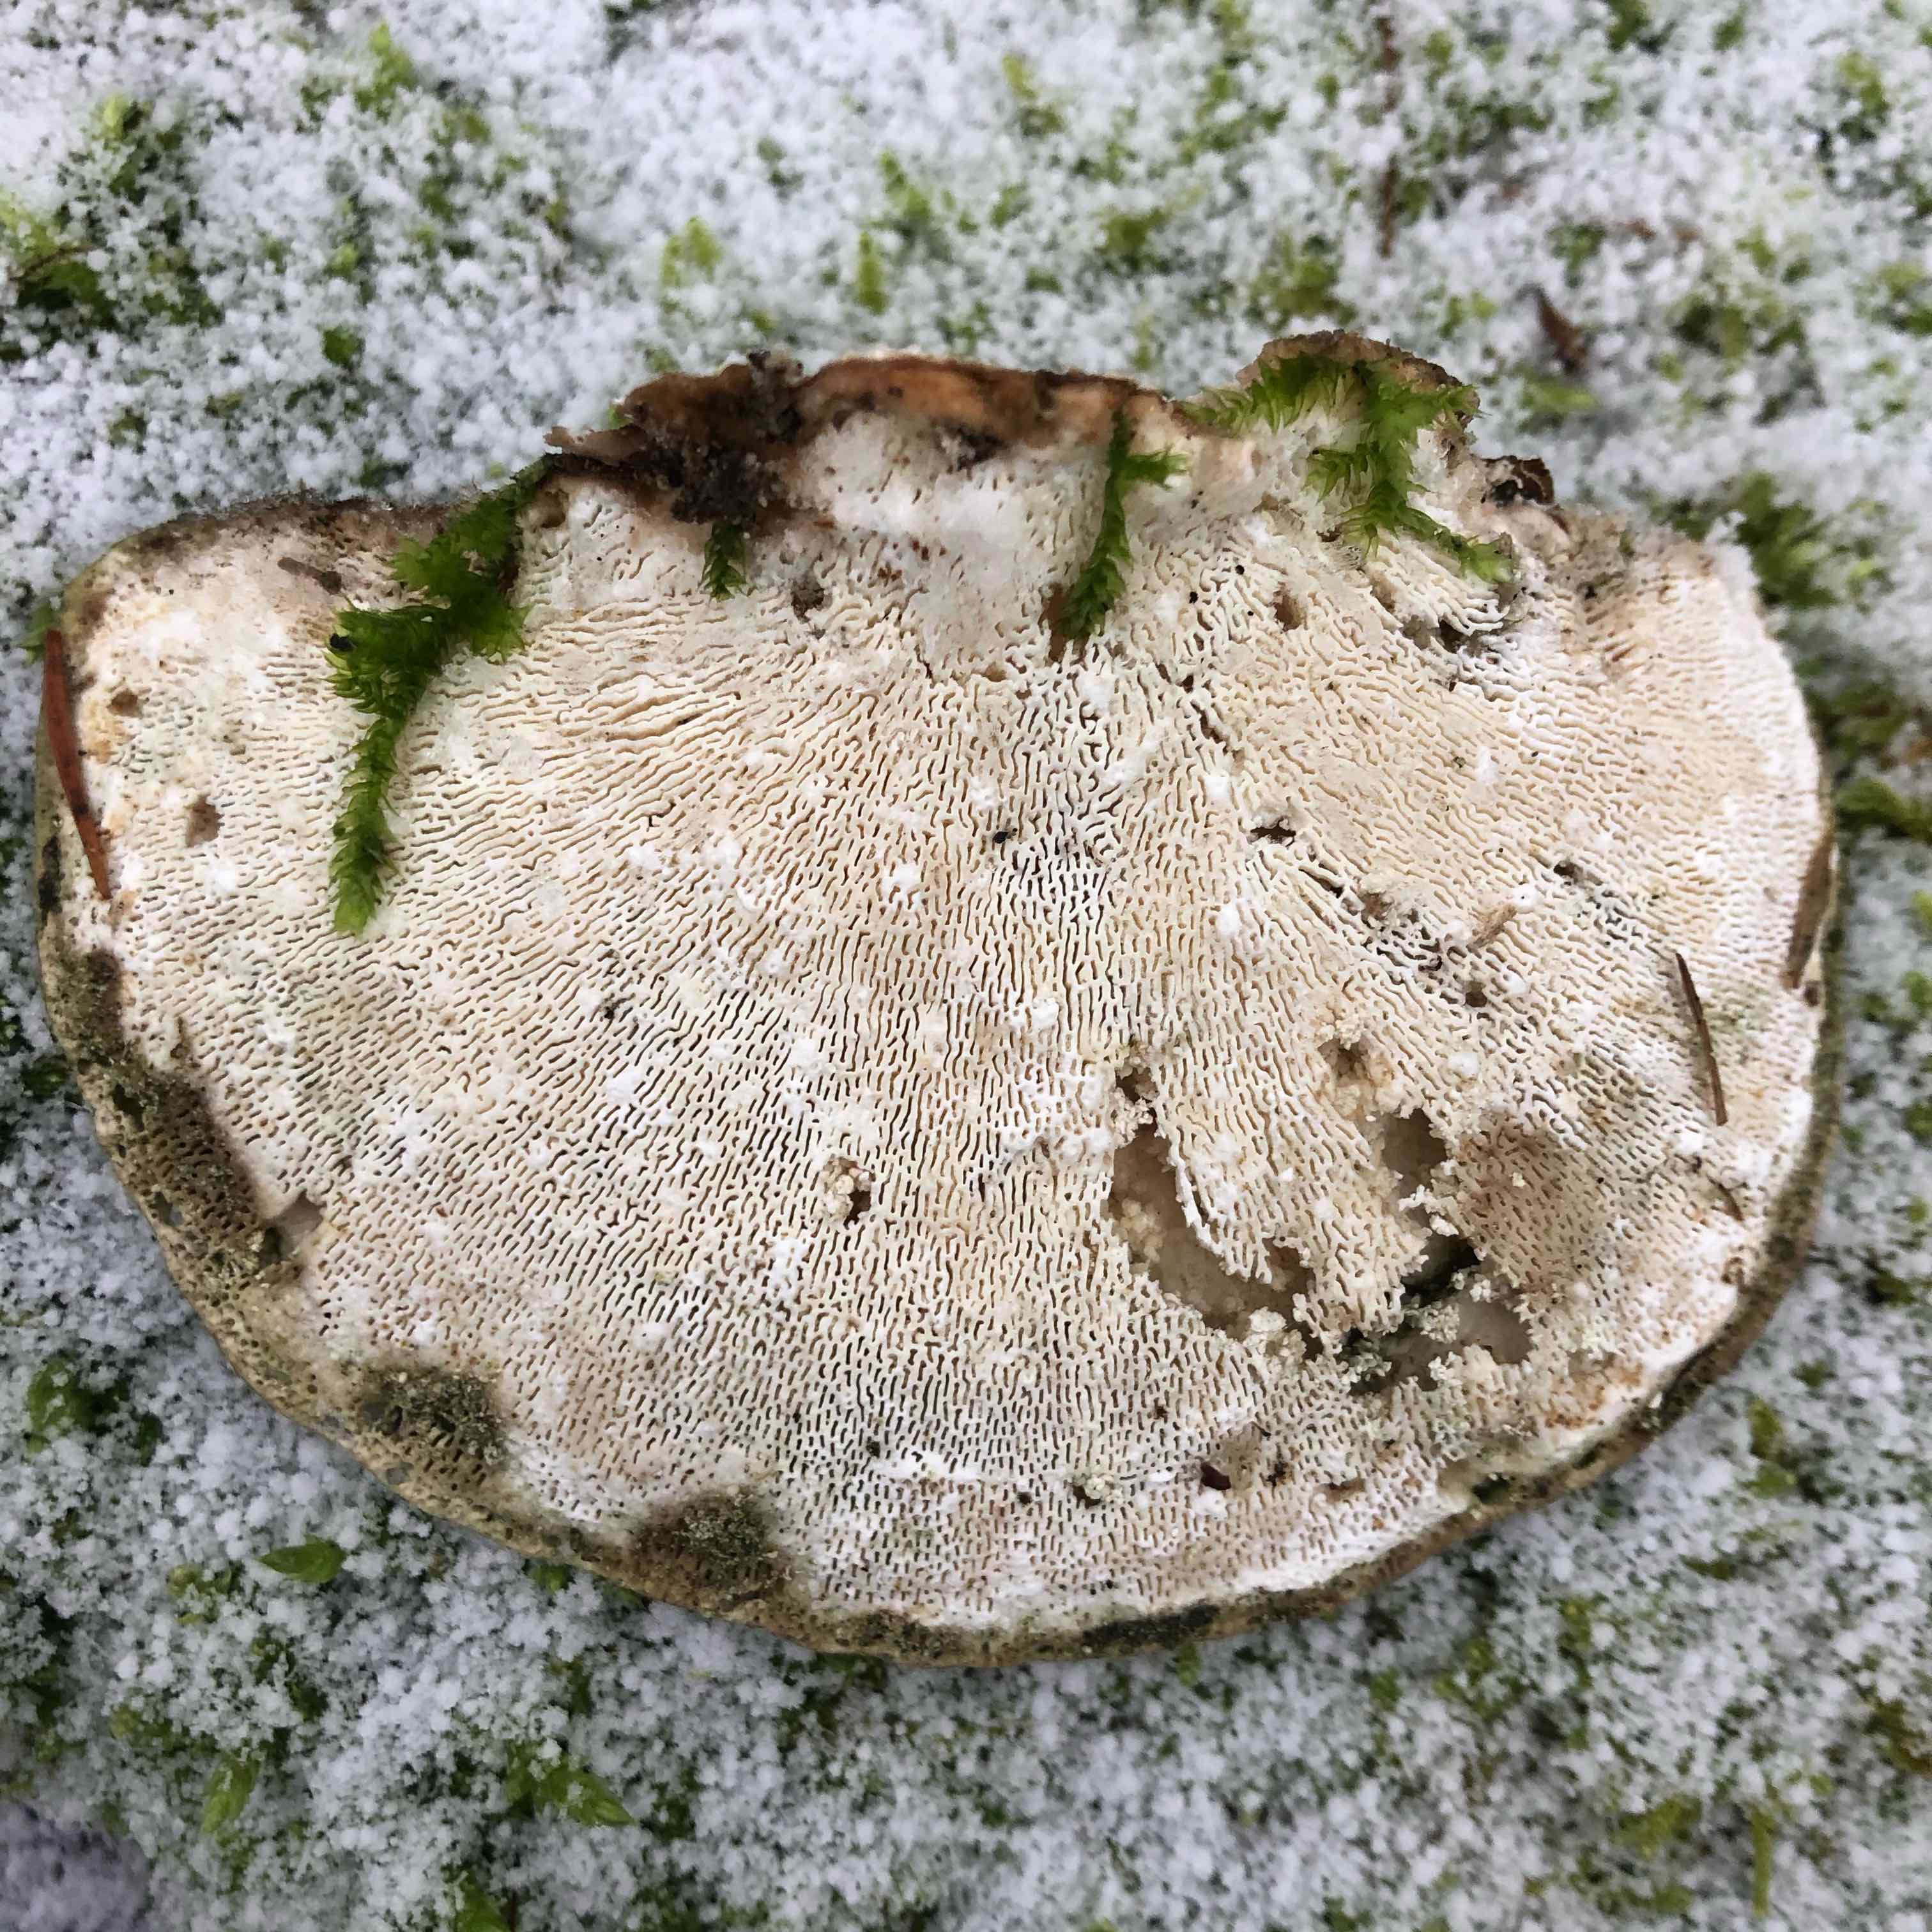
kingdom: Fungi
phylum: Basidiomycota
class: Agaricomycetes
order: Polyporales
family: Polyporaceae
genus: Trametes
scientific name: Trametes gibbosa
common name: puklet læderporesvamp
